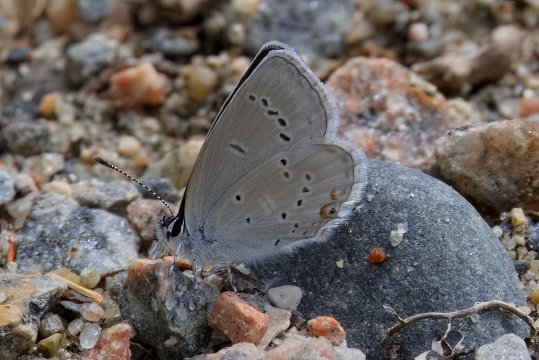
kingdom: Animalia
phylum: Arthropoda
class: Insecta
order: Lepidoptera
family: Lycaenidae
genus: Elkalyce
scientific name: Elkalyce amyntula
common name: Western Tailed-Blue
